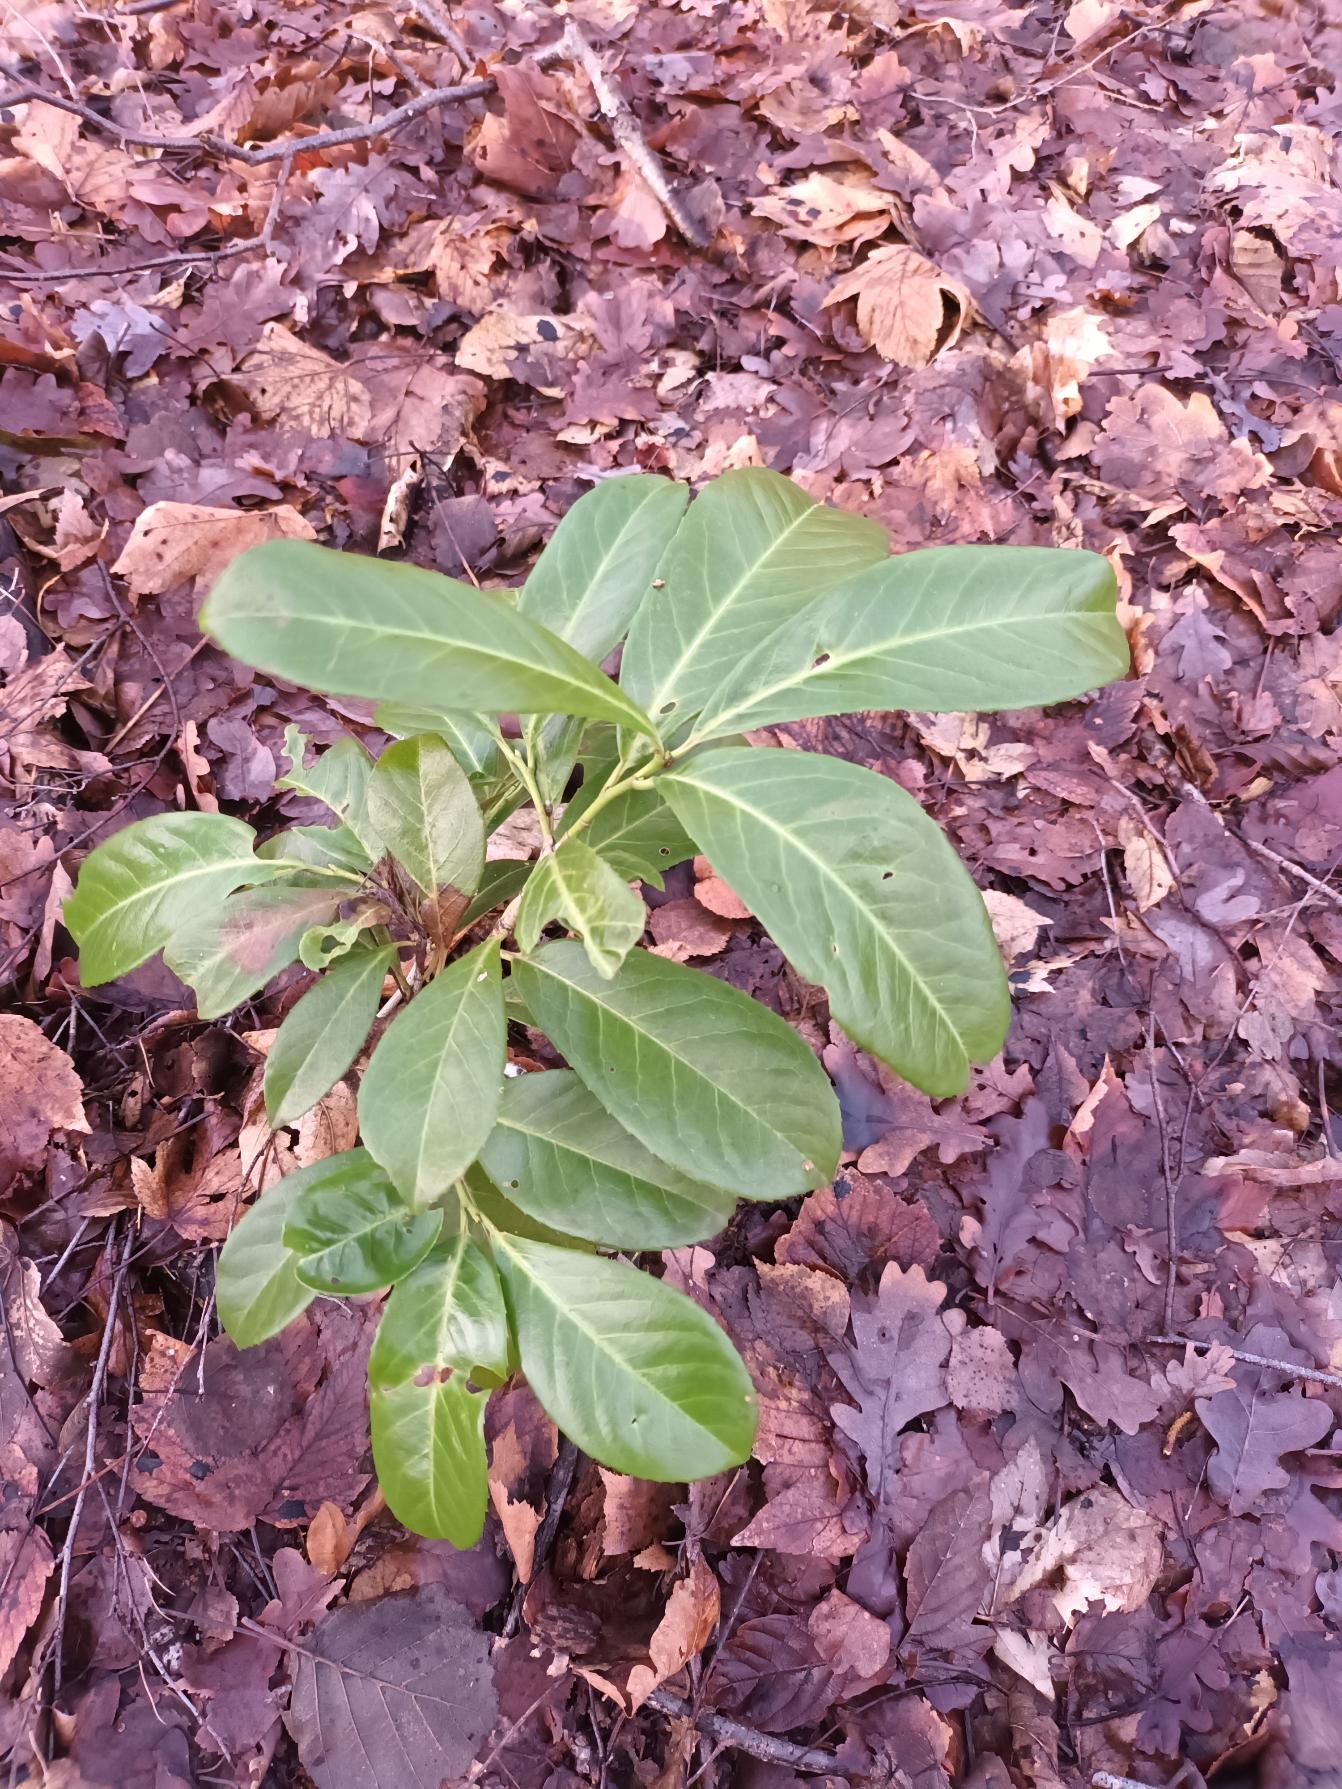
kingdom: Plantae
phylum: Tracheophyta
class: Magnoliopsida
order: Rosales
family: Rosaceae
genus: Prunus
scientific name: Prunus laurocerasus
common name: Laurbærkirsebær
